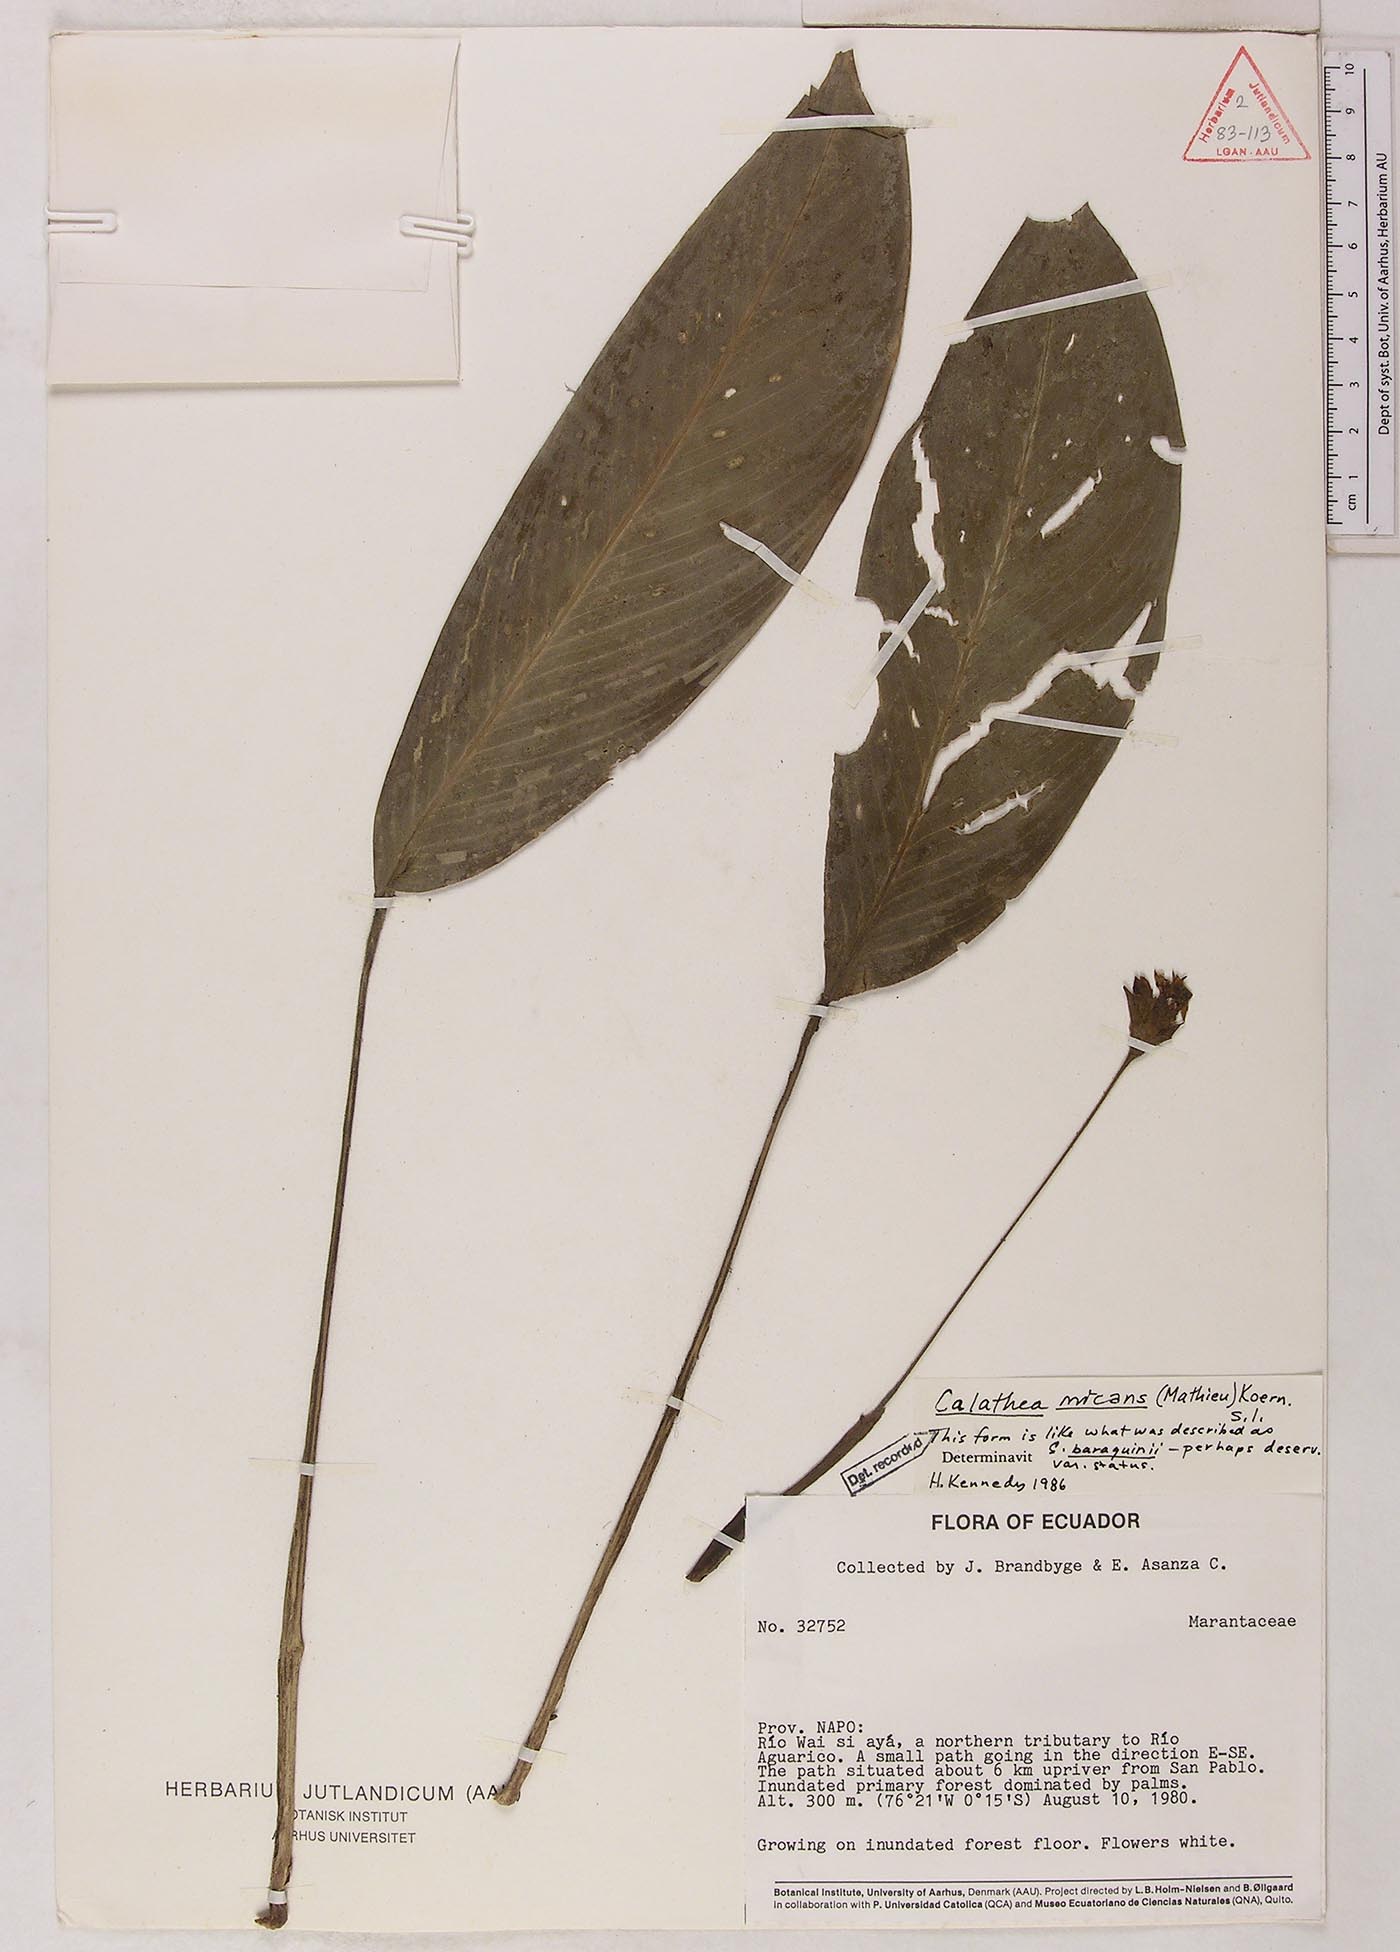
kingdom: Plantae
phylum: Tracheophyta
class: Liliopsida
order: Zingiberales
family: Marantaceae
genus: Goeppertia
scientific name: Goeppertia micans
